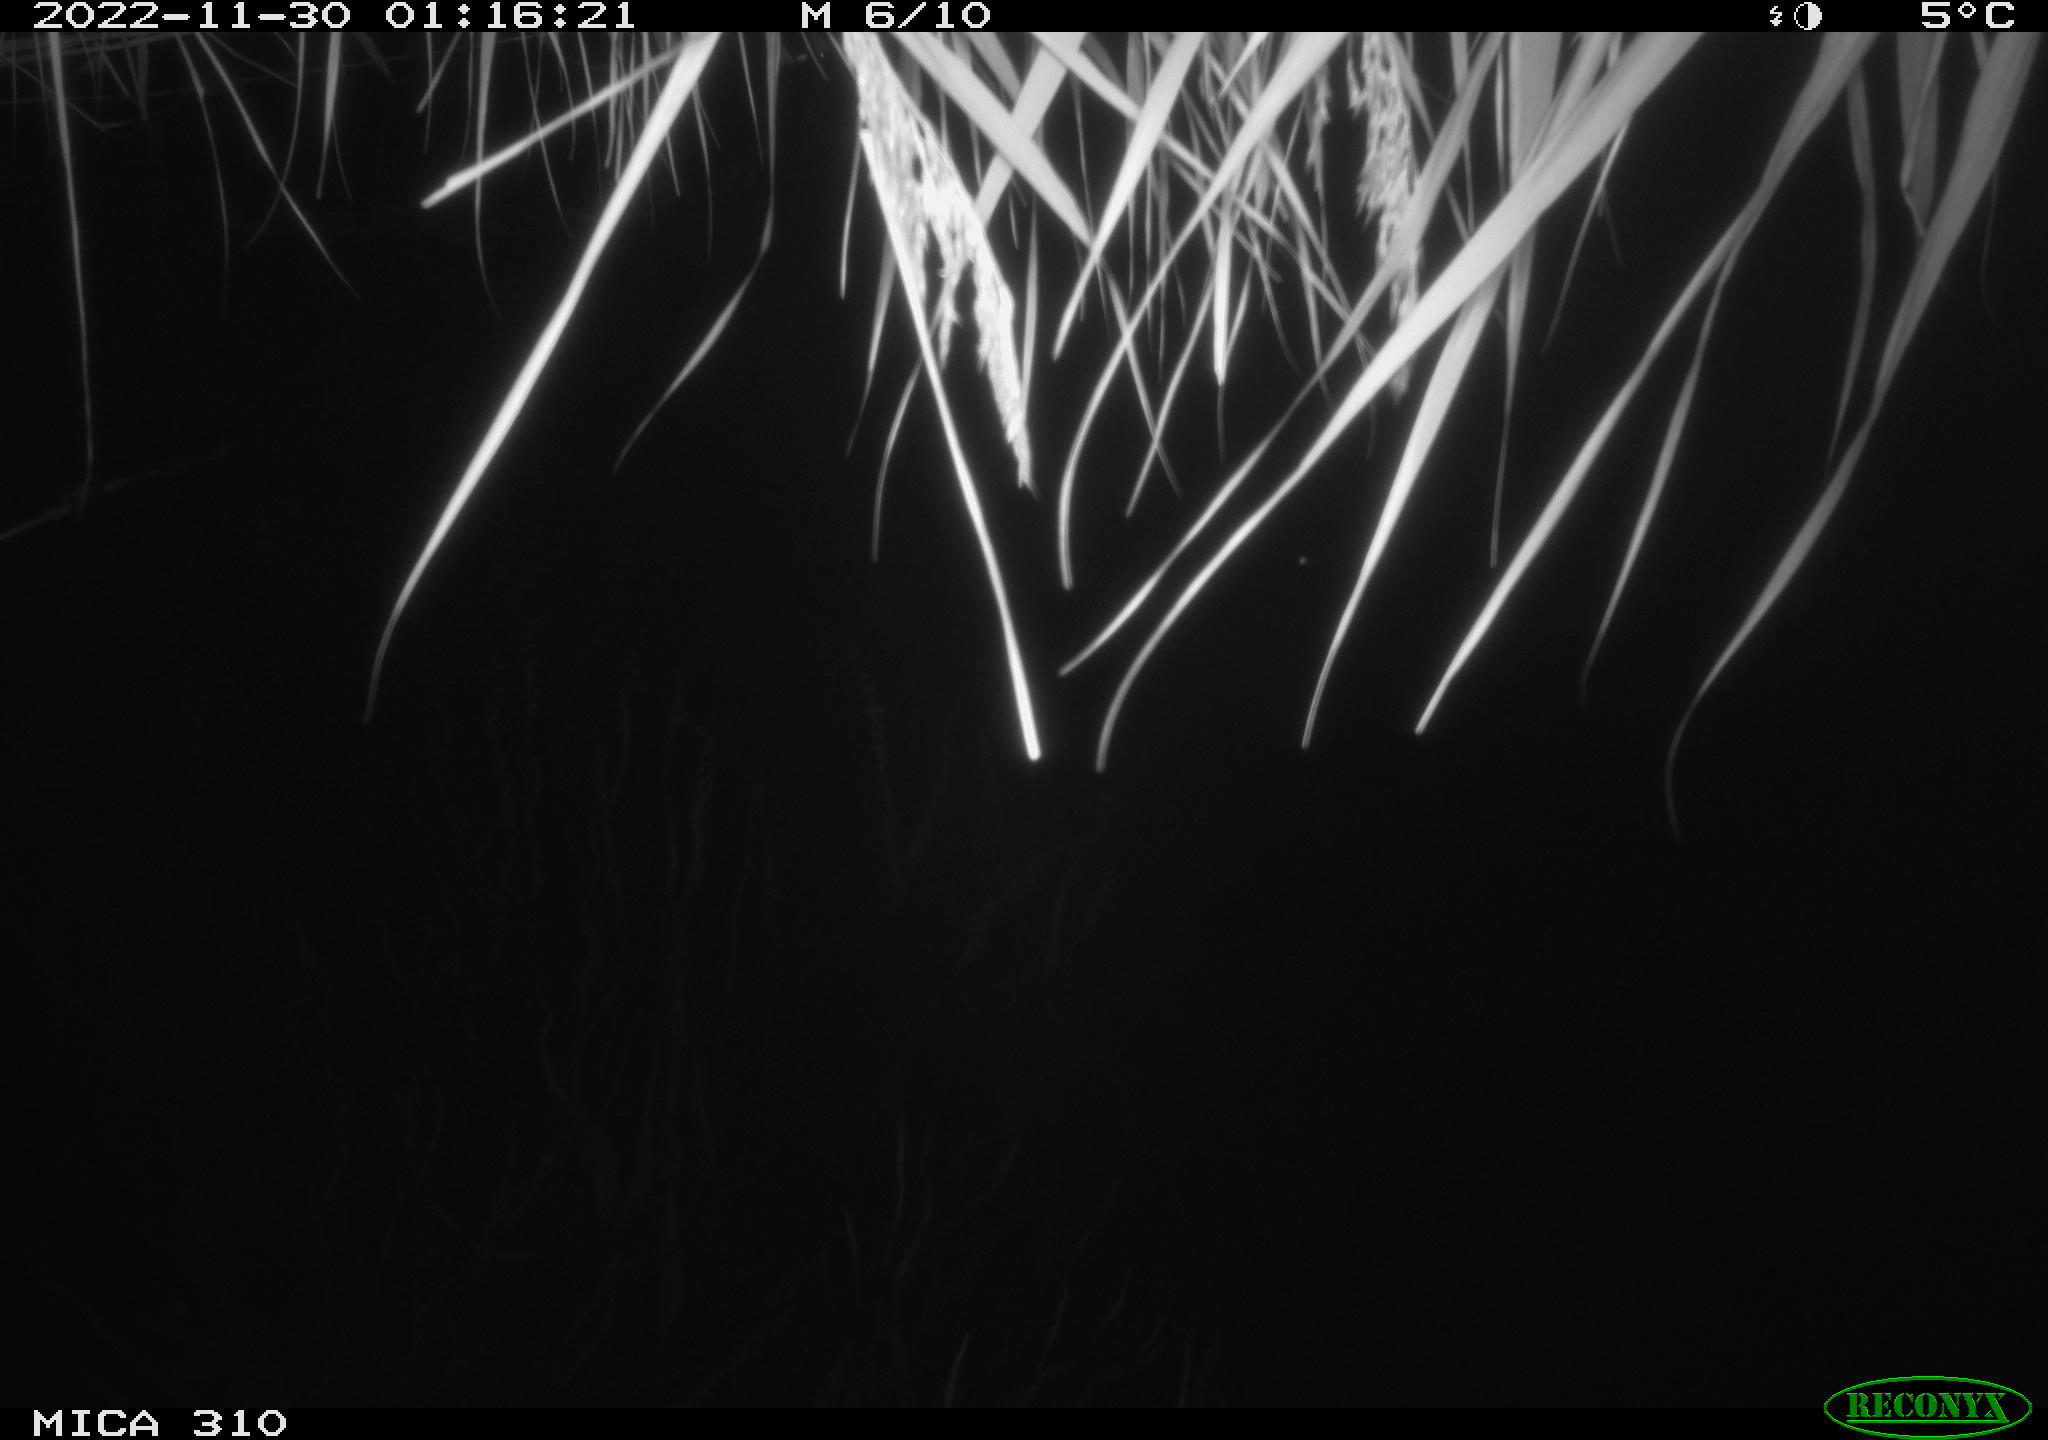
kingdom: Animalia
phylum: Chordata
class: Mammalia
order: Rodentia
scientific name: Rodentia
